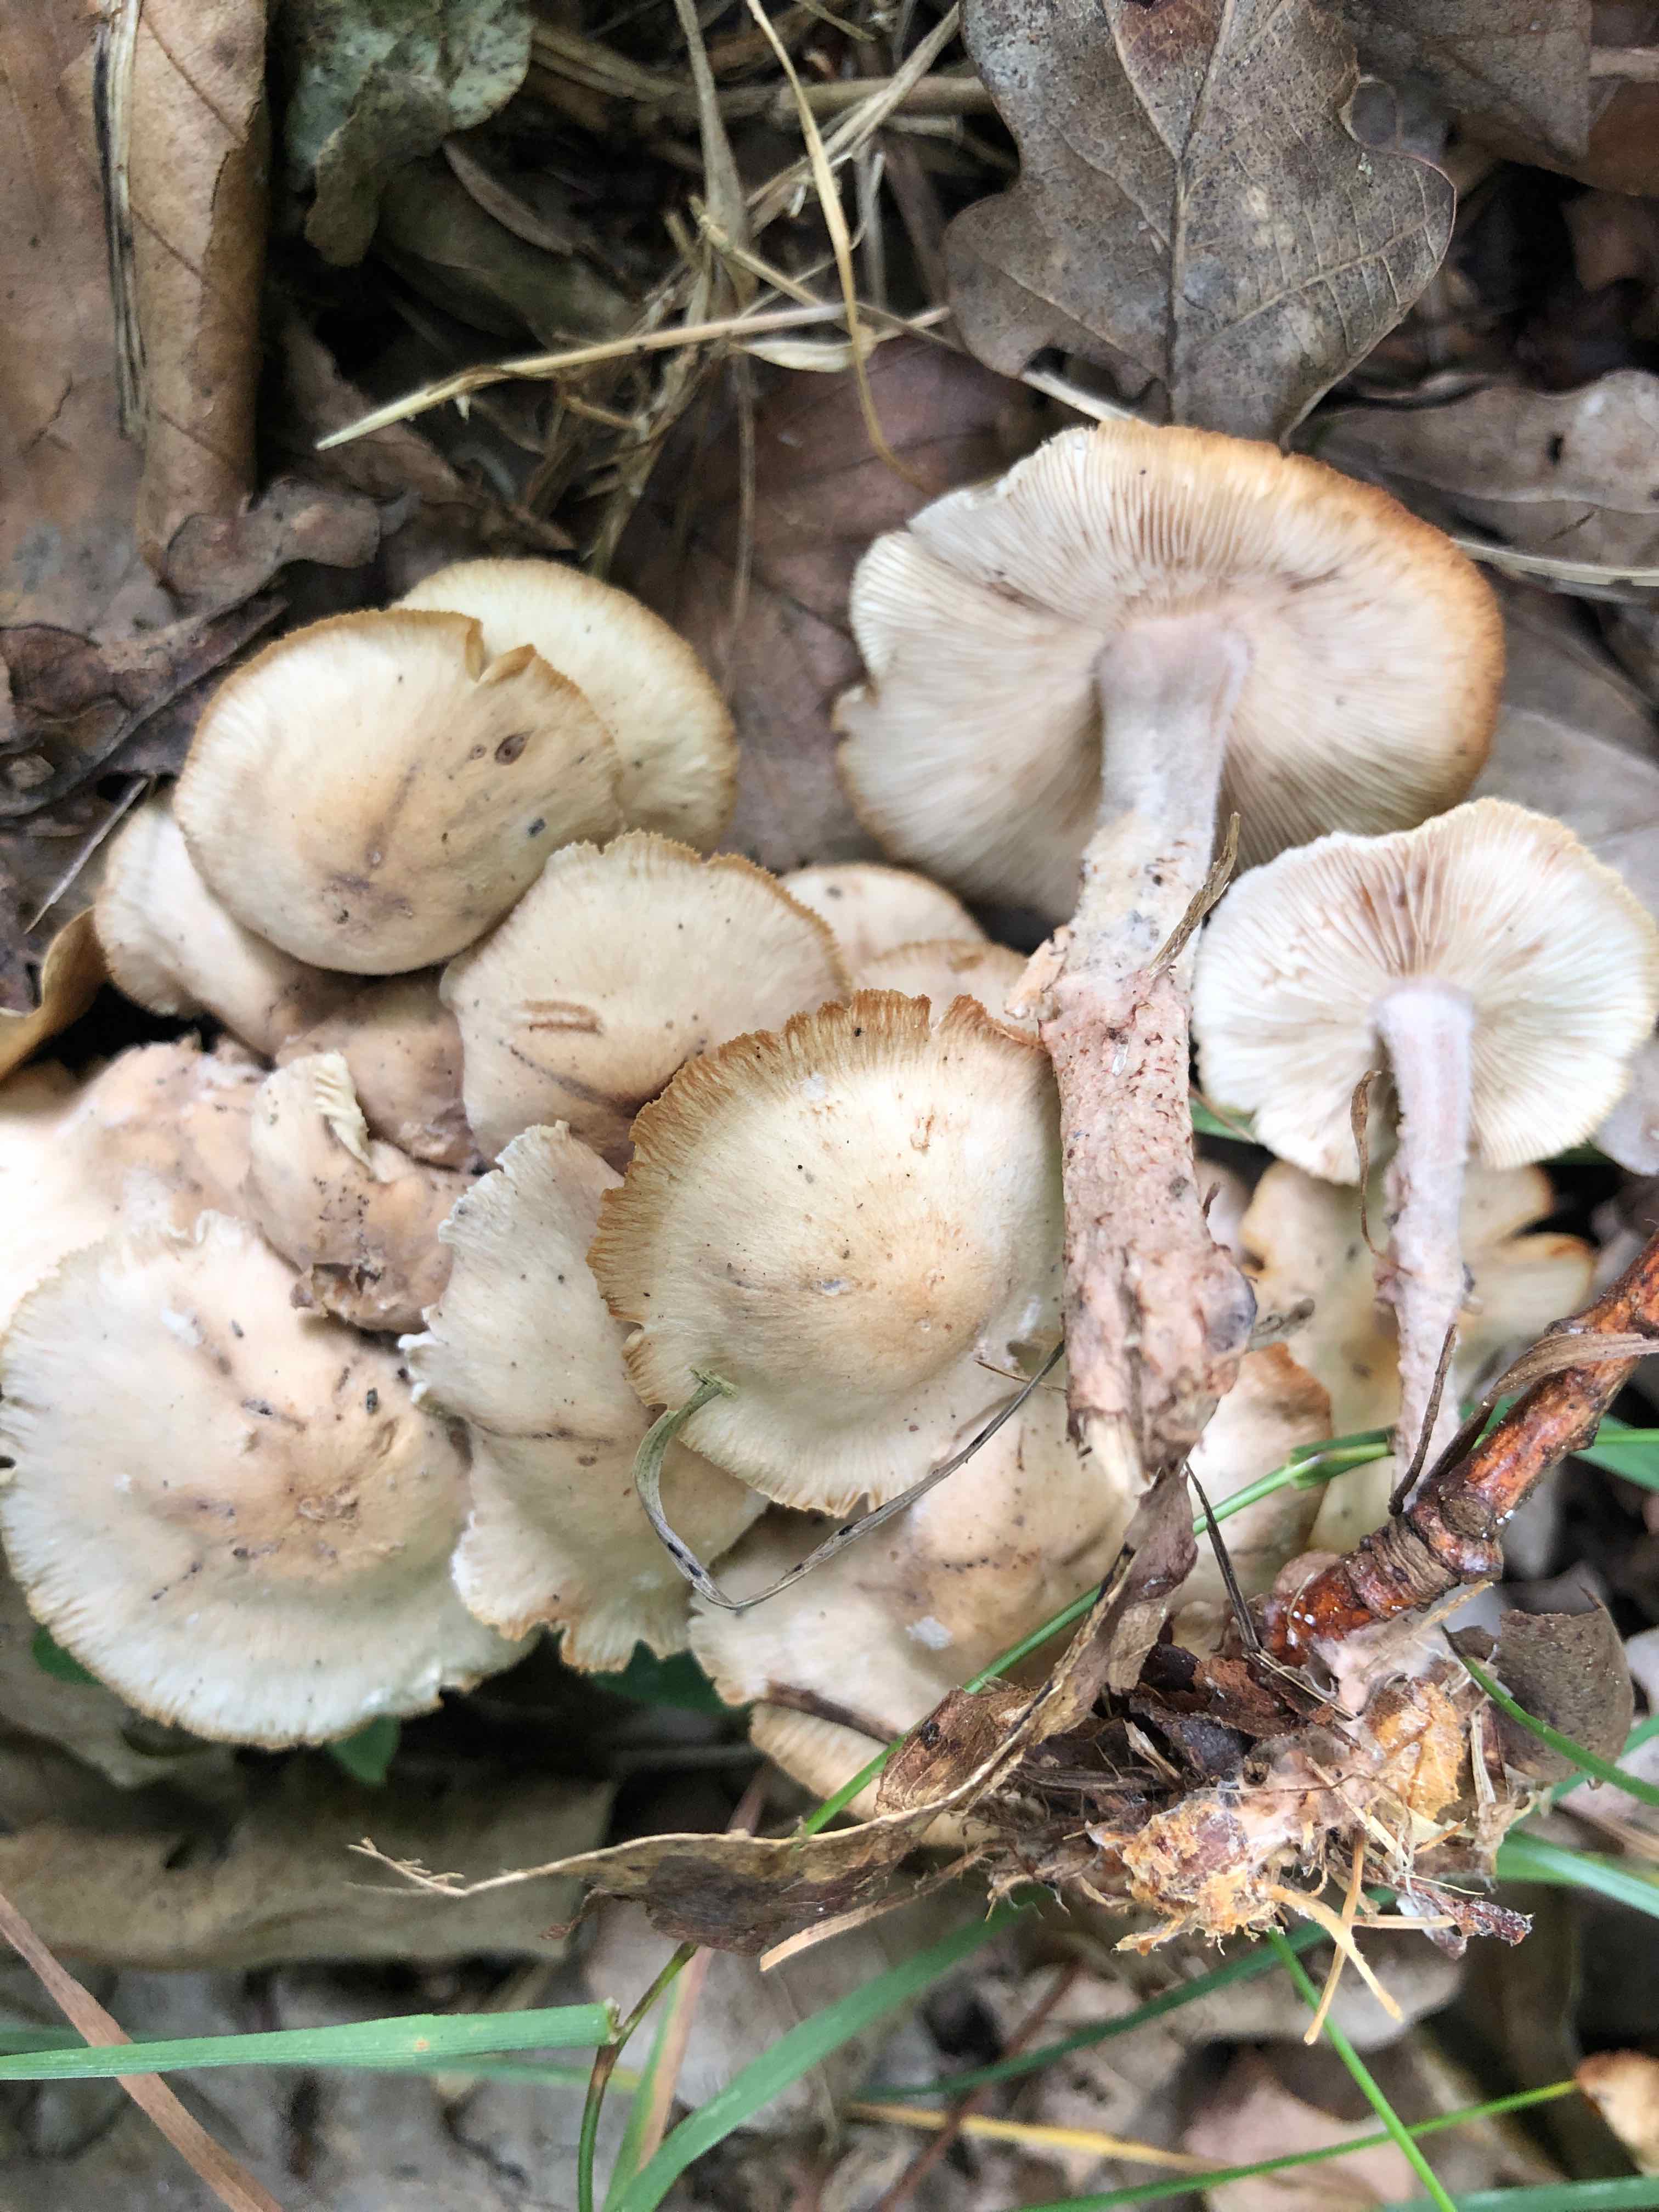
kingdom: Fungi
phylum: Basidiomycota
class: Agaricomycetes
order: Agaricales
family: Omphalotaceae
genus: Collybiopsis
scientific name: Collybiopsis confluens
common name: knippe-fladhat
